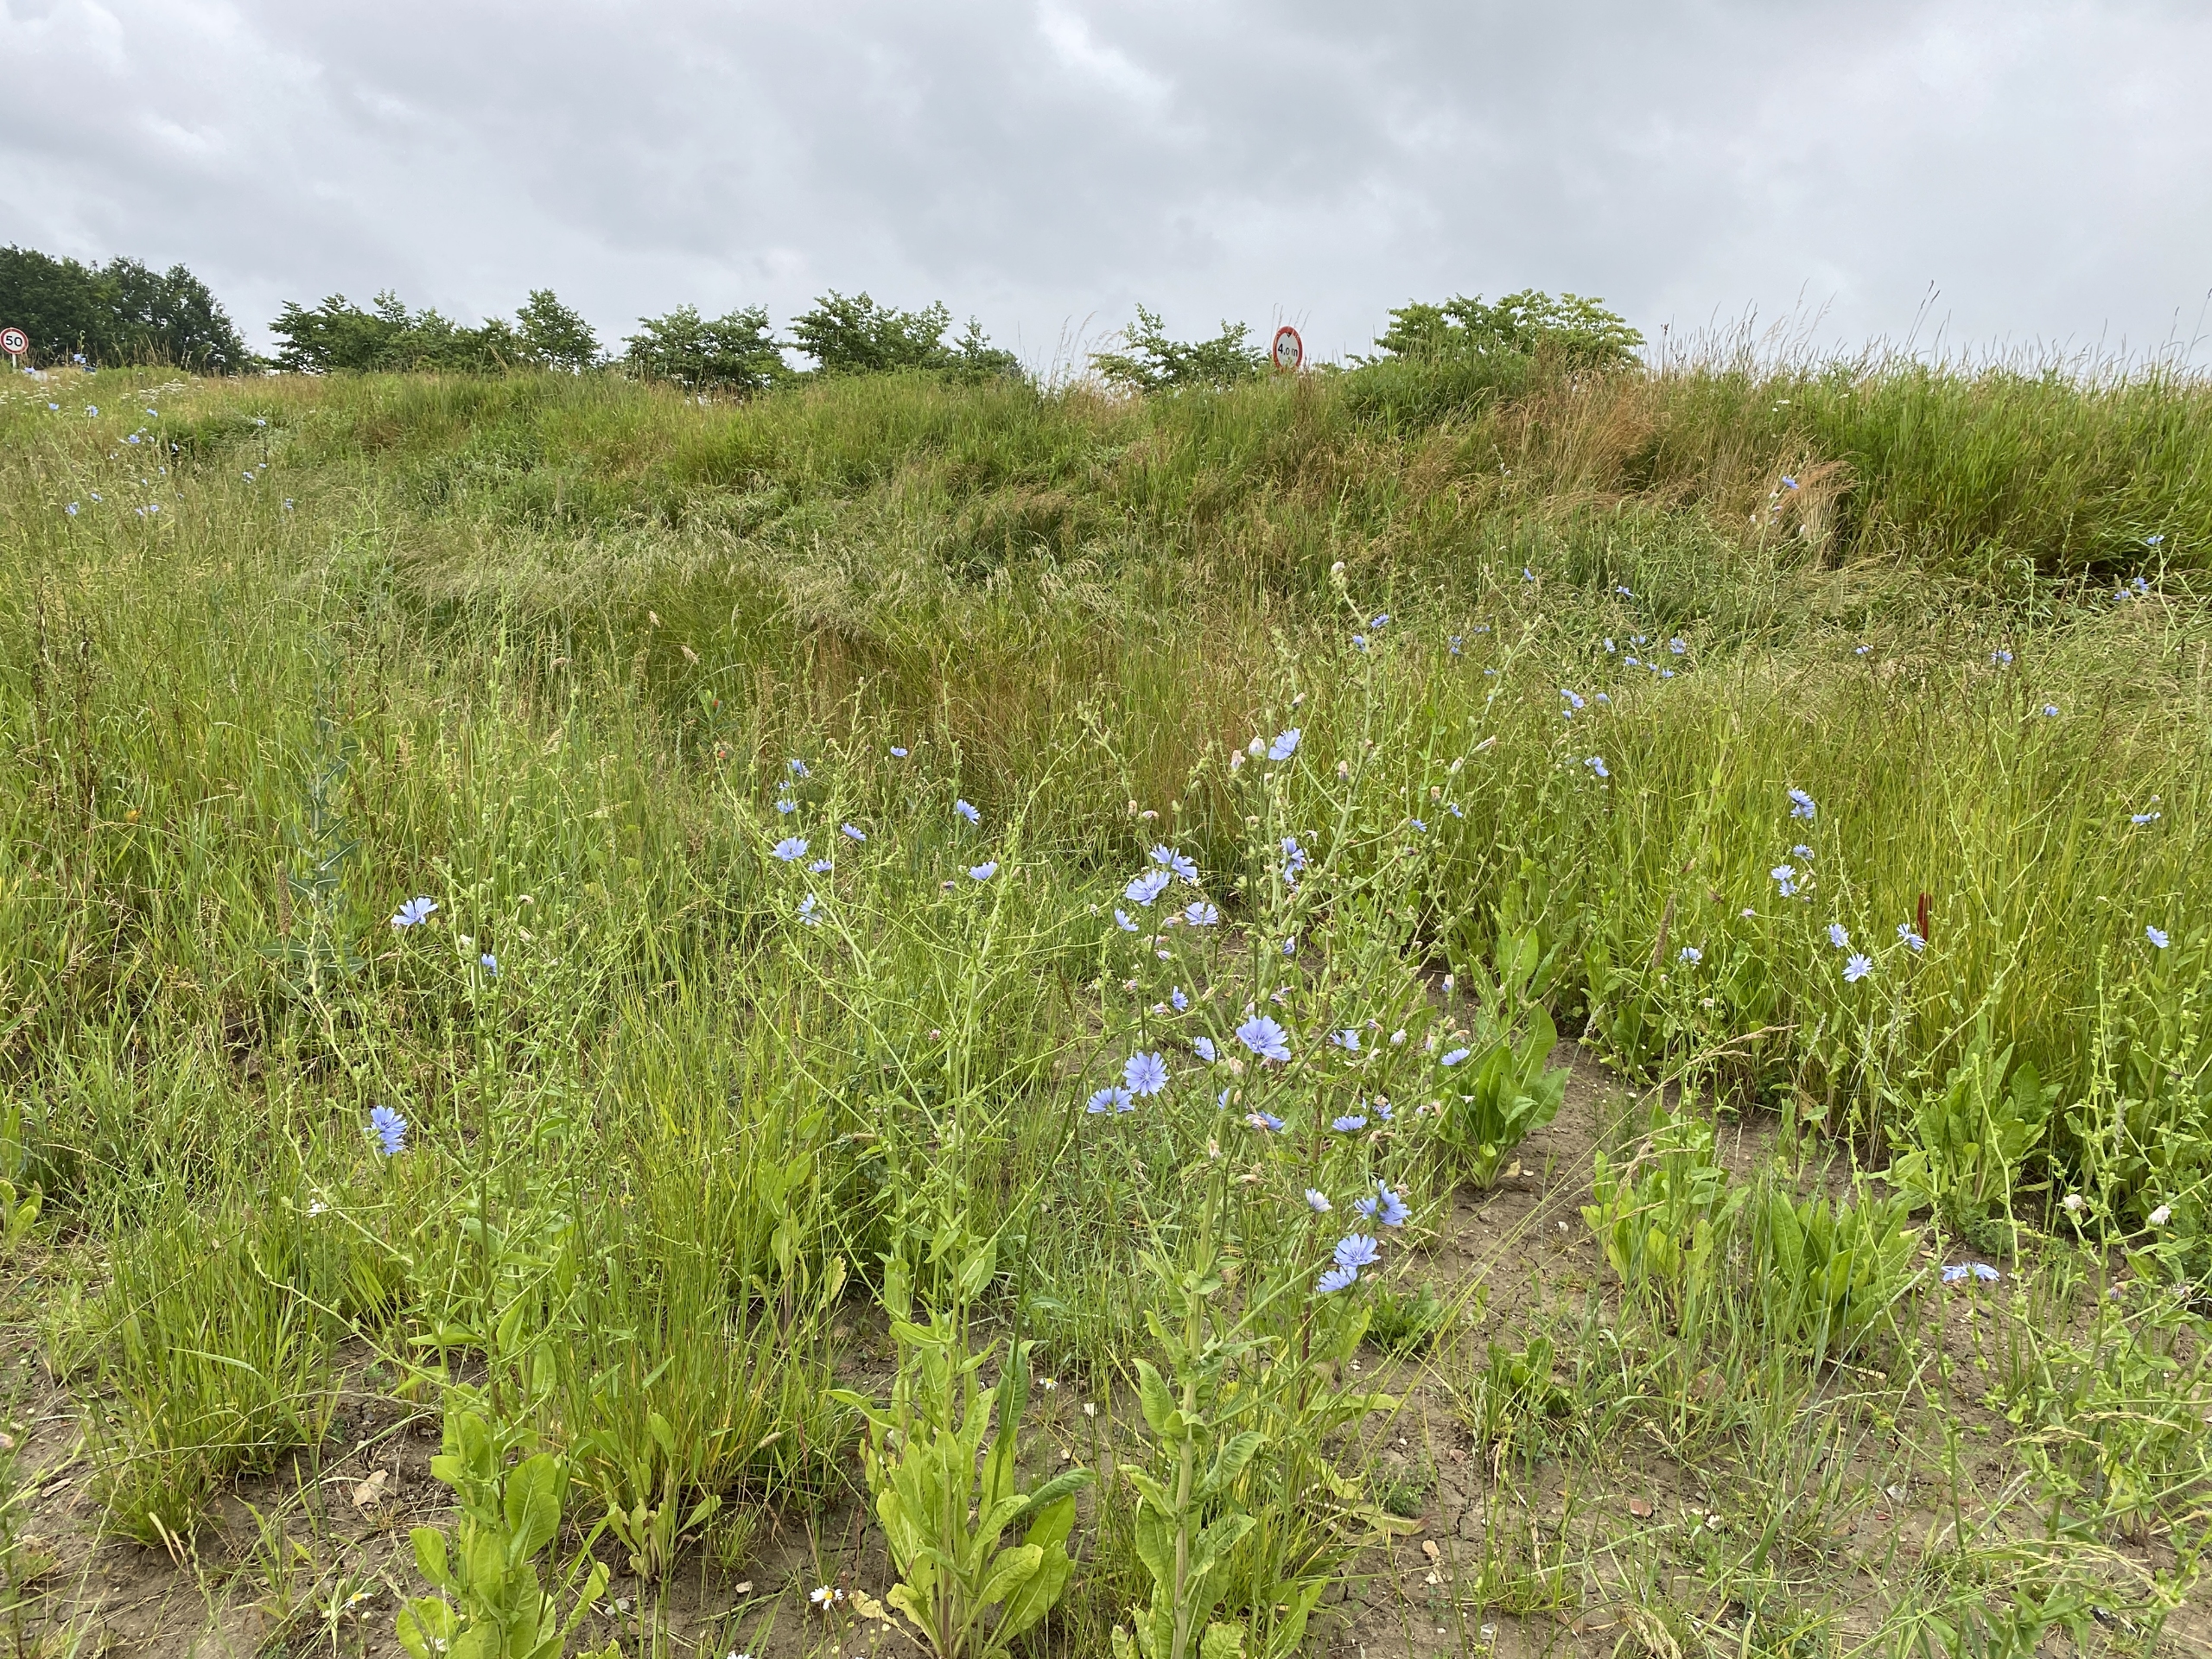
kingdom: Plantae
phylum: Tracheophyta
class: Magnoliopsida
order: Asterales
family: Asteraceae
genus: Cichorium
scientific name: Cichorium intybus
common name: Cikorie
